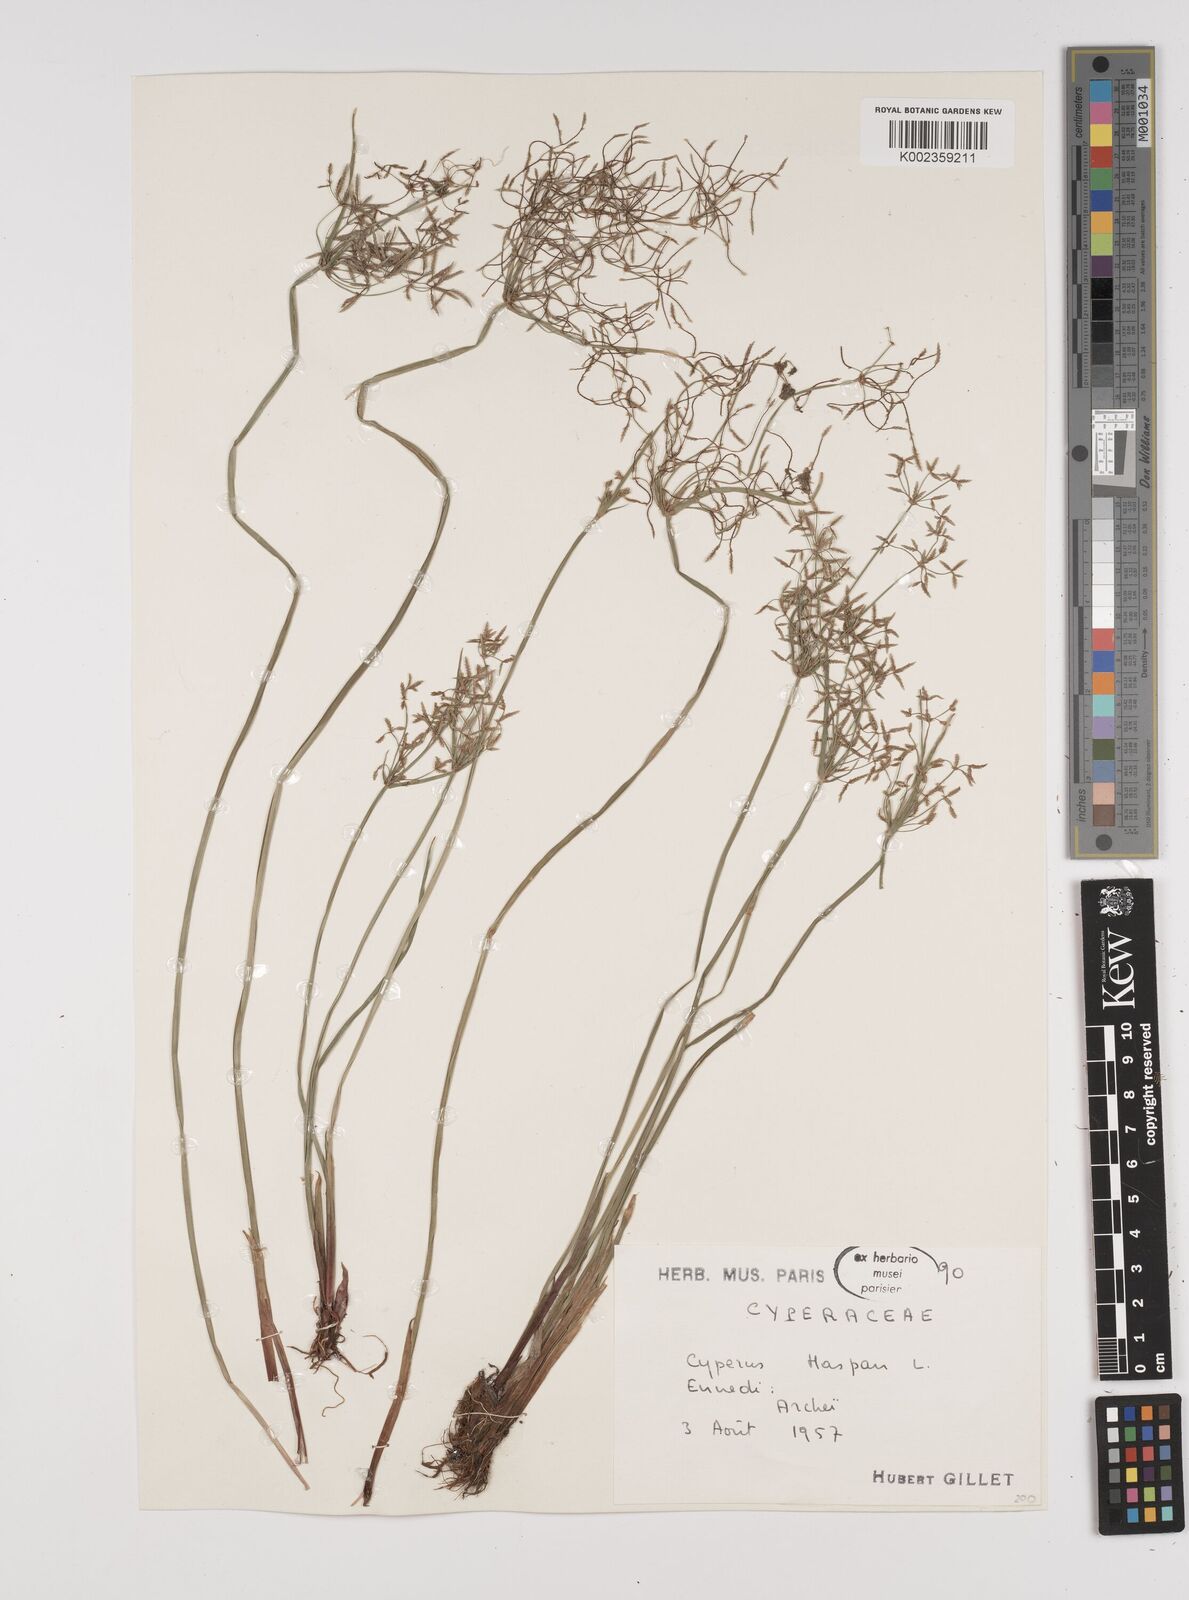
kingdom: Plantae
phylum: Tracheophyta
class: Liliopsida
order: Poales
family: Cyperaceae
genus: Cyperus
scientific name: Cyperus haspan
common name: Haspan flatsedge
